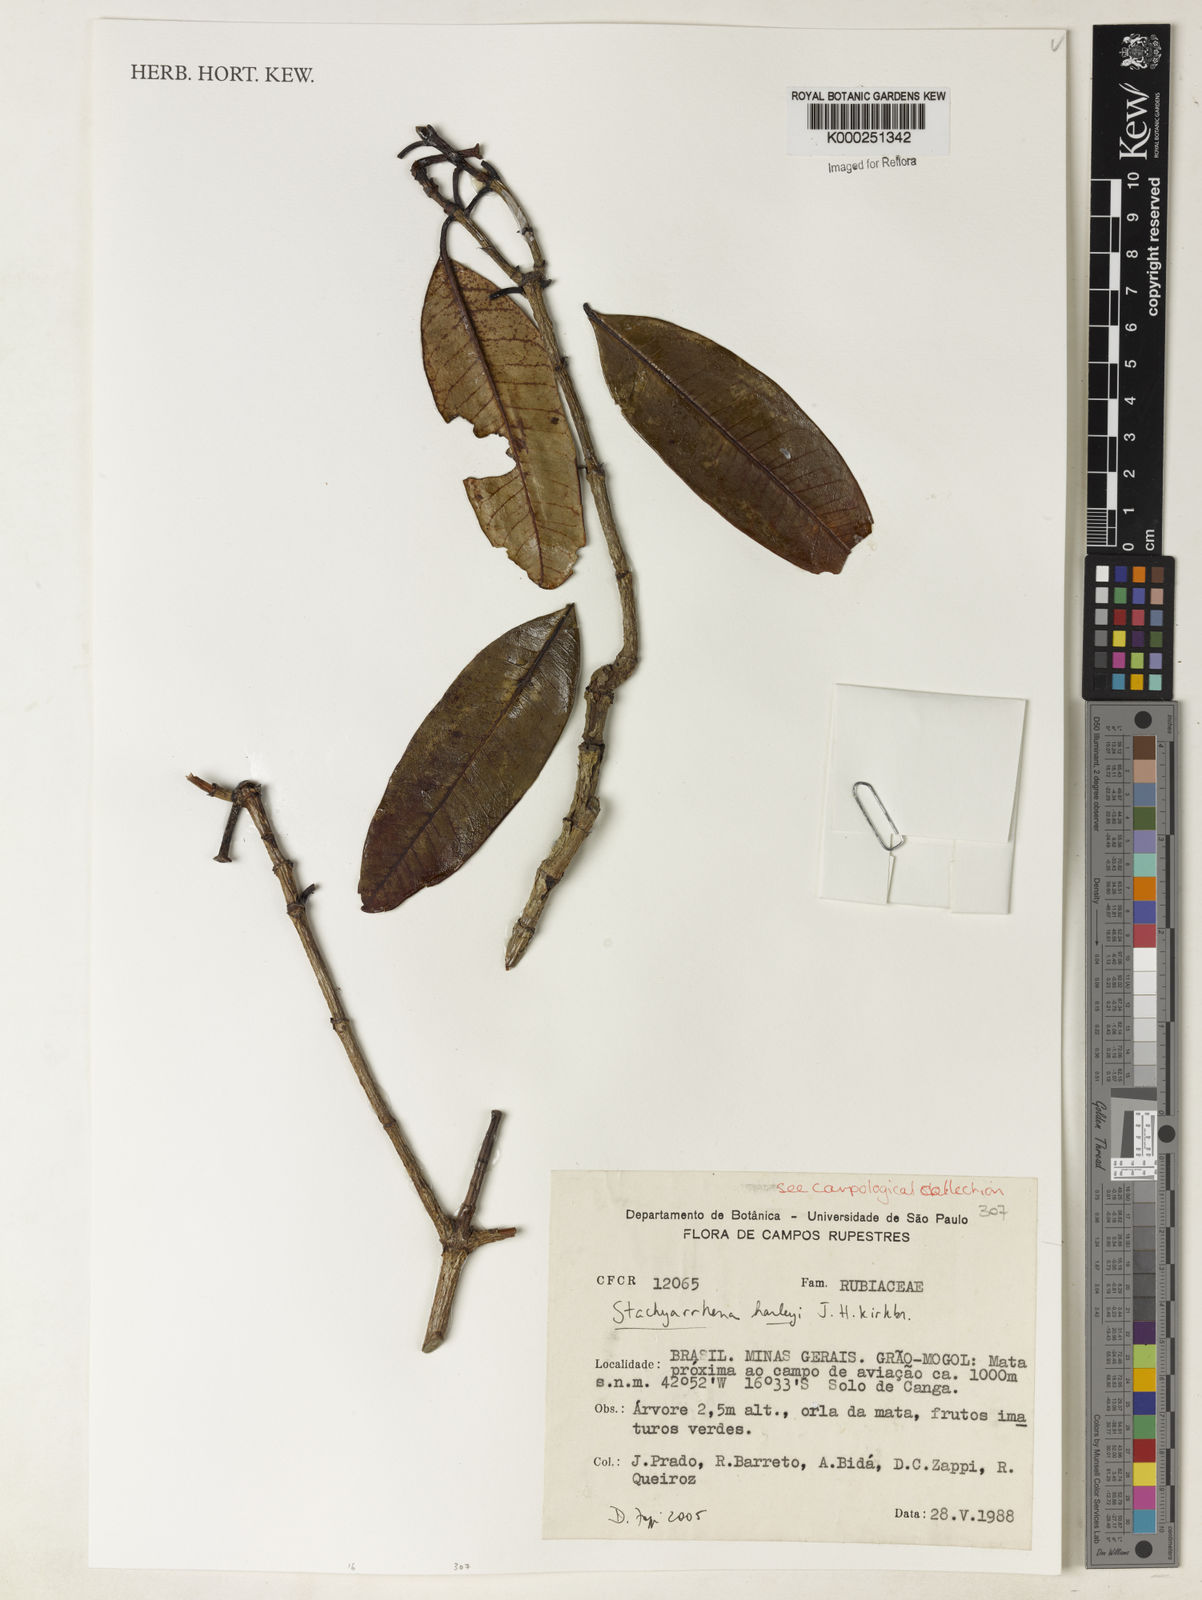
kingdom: Plantae
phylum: Tracheophyta
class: Magnoliopsida
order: Gentianales
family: Rubiaceae
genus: Stachyarrhena
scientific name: Stachyarrhena harleyi
